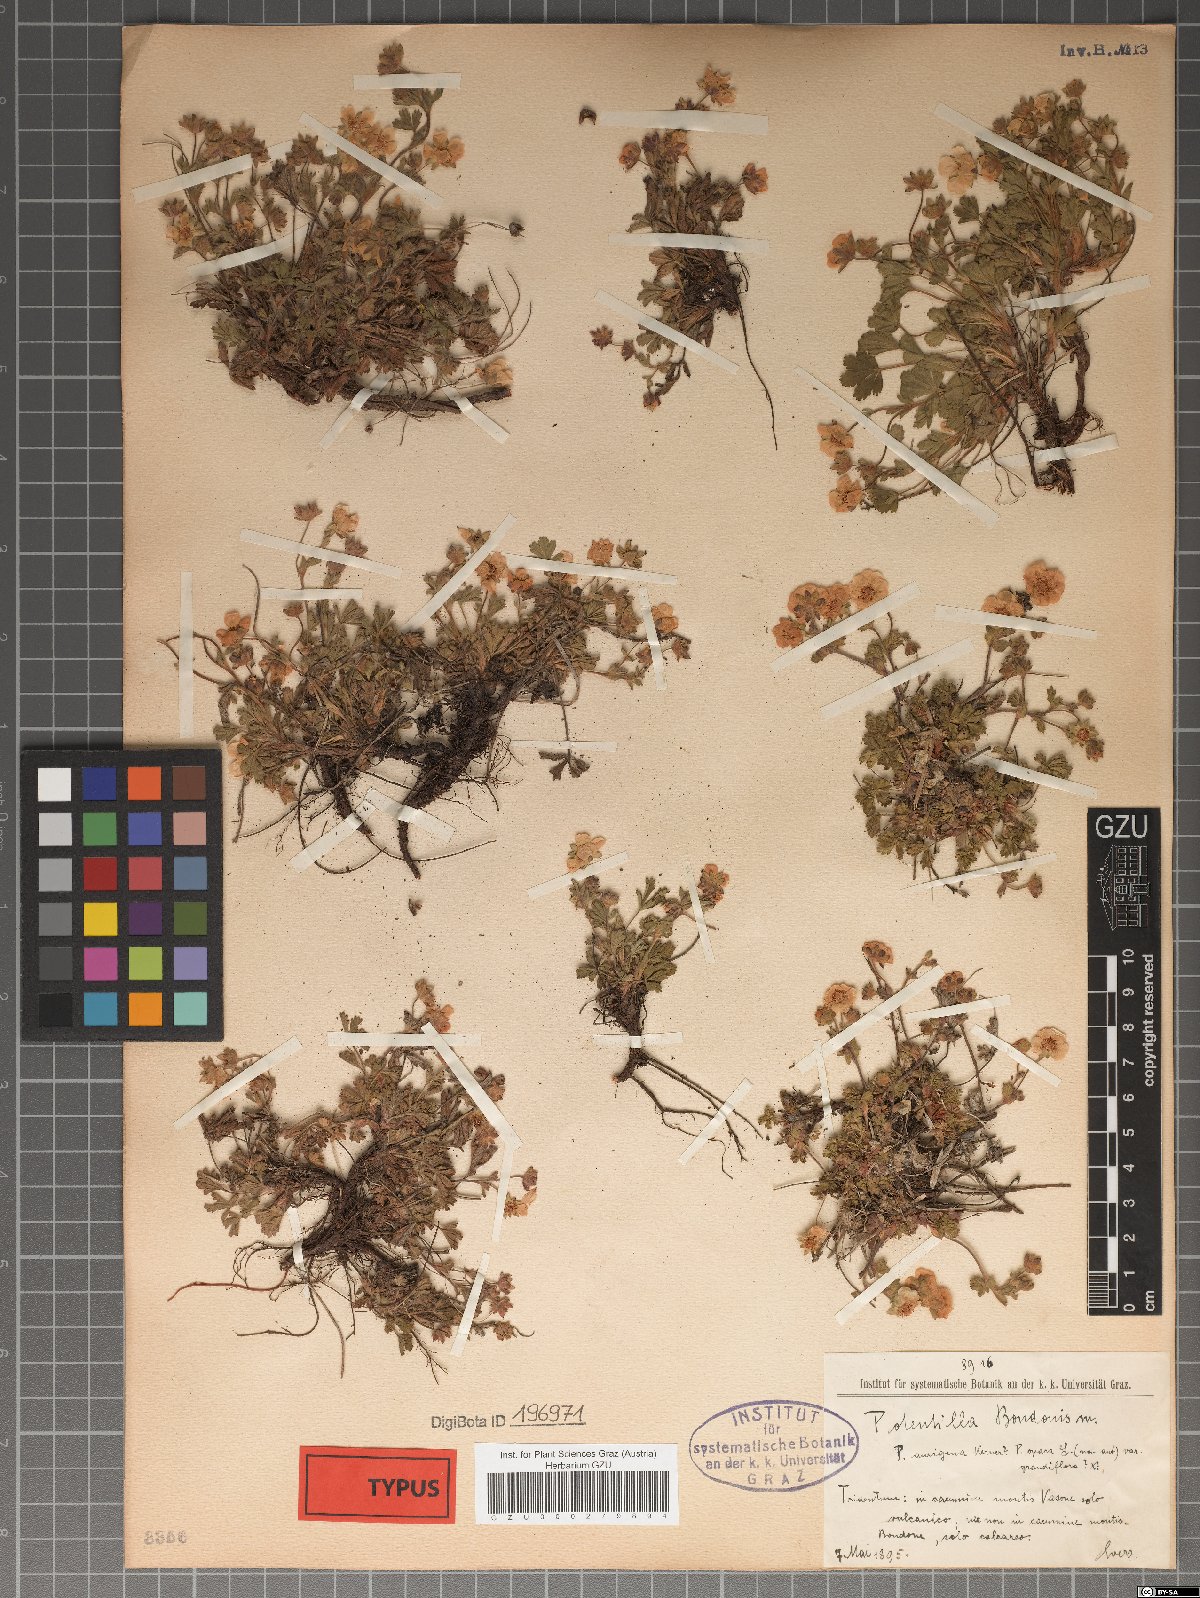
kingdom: Plantae
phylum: Tracheophyta
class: Magnoliopsida
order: Rosales
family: Rosaceae
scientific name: Rosaceae
